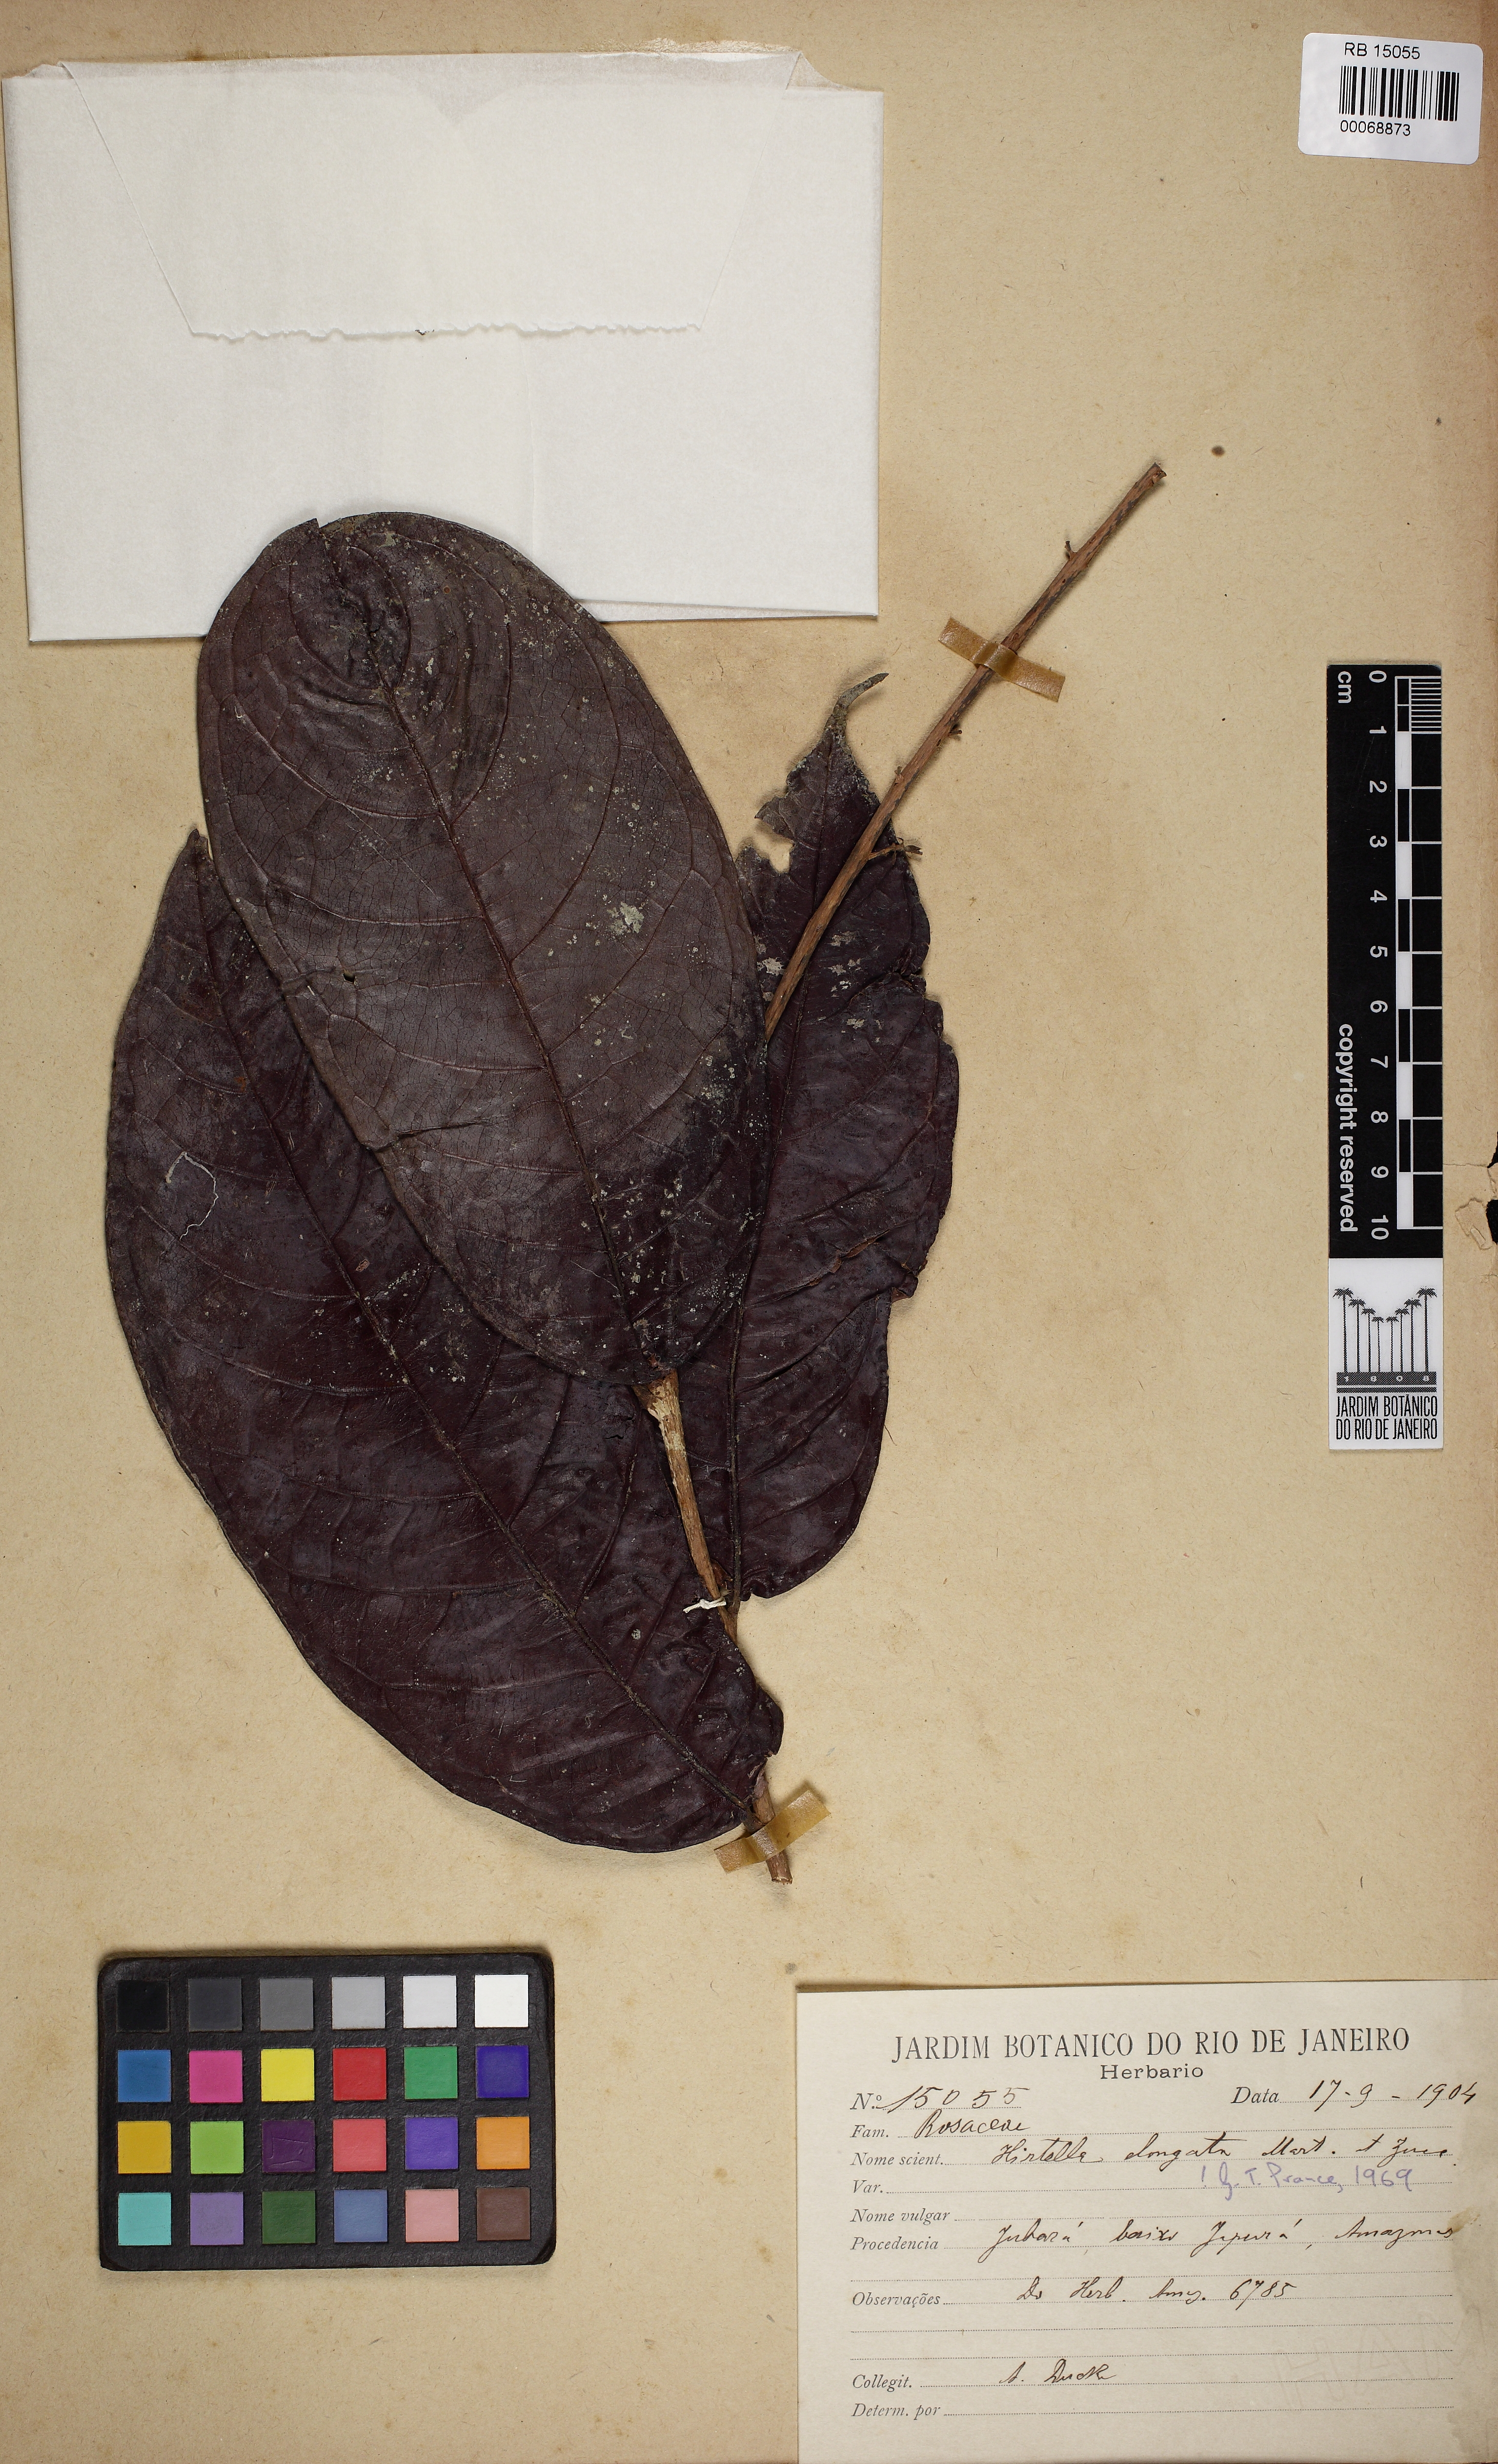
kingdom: Plantae
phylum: Tracheophyta
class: Magnoliopsida
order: Malpighiales
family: Chrysobalanaceae
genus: Hirtella
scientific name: Hirtella elongata
